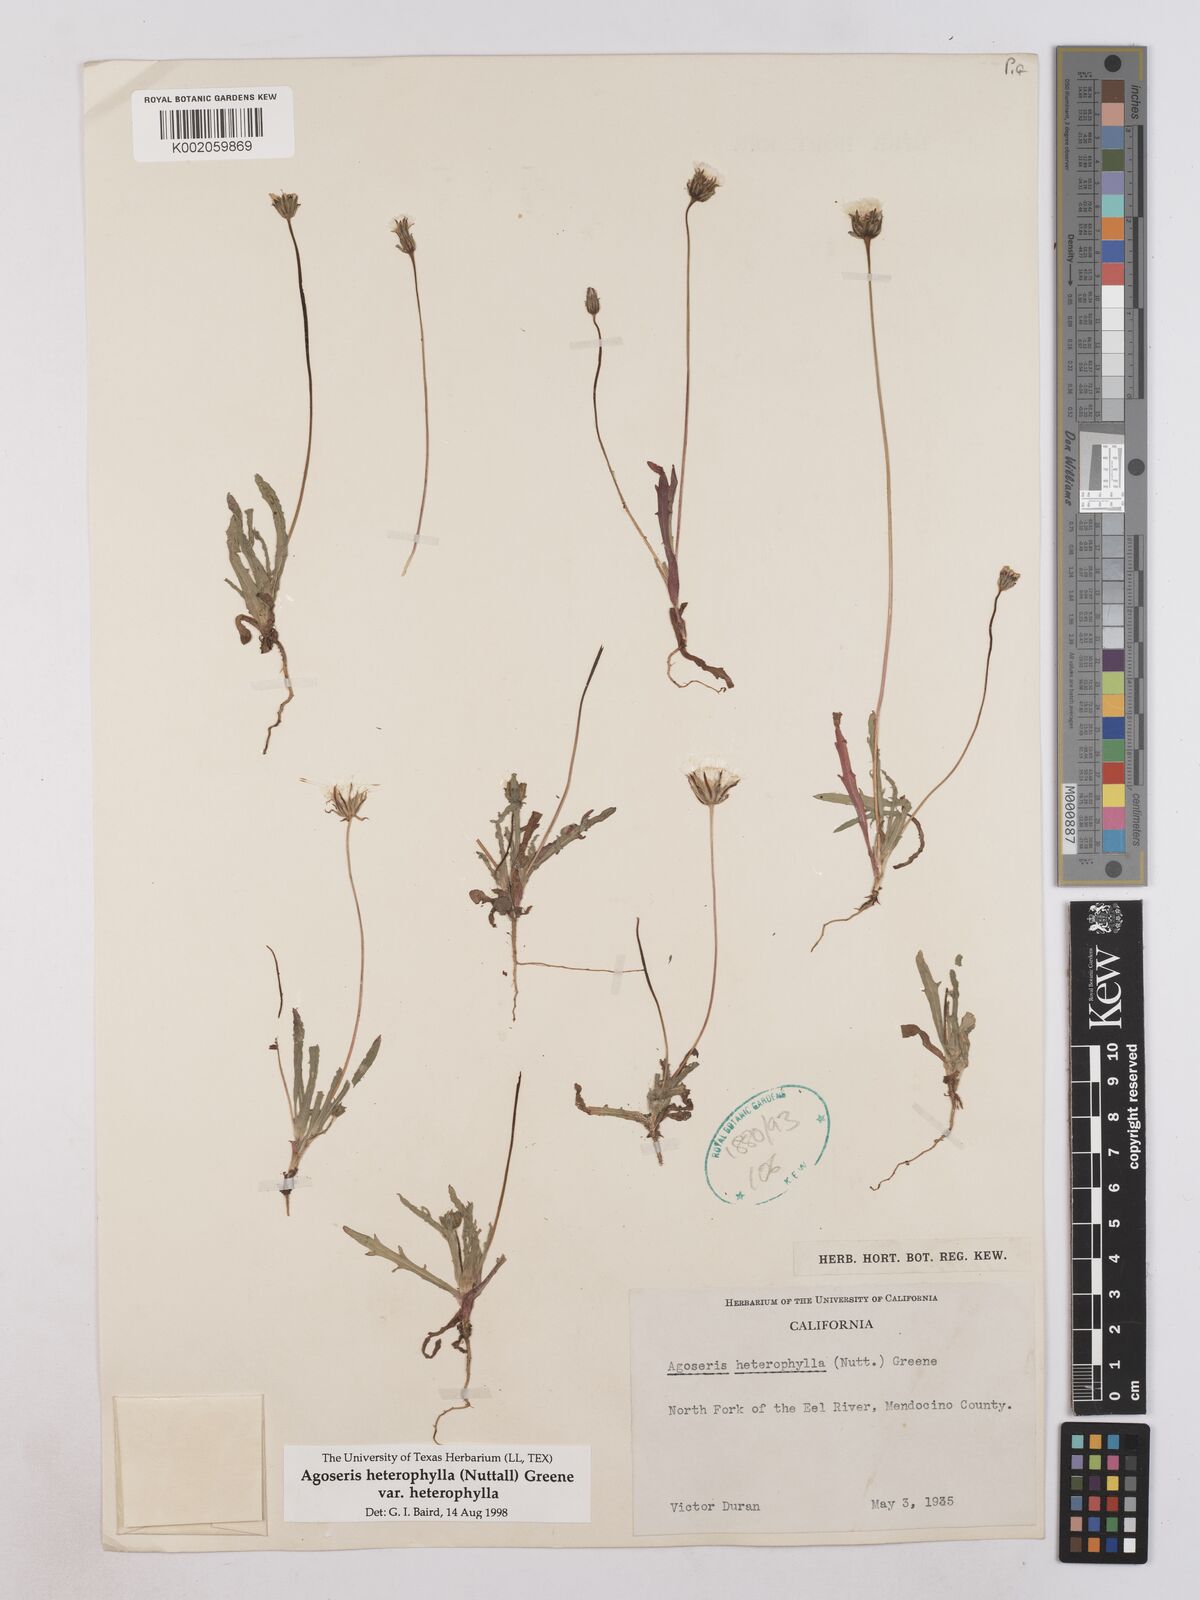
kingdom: Plantae
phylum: Tracheophyta
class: Magnoliopsida
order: Asterales
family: Asteraceae
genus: Agoseris
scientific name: Agoseris heterophylla
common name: Annual agoseris
